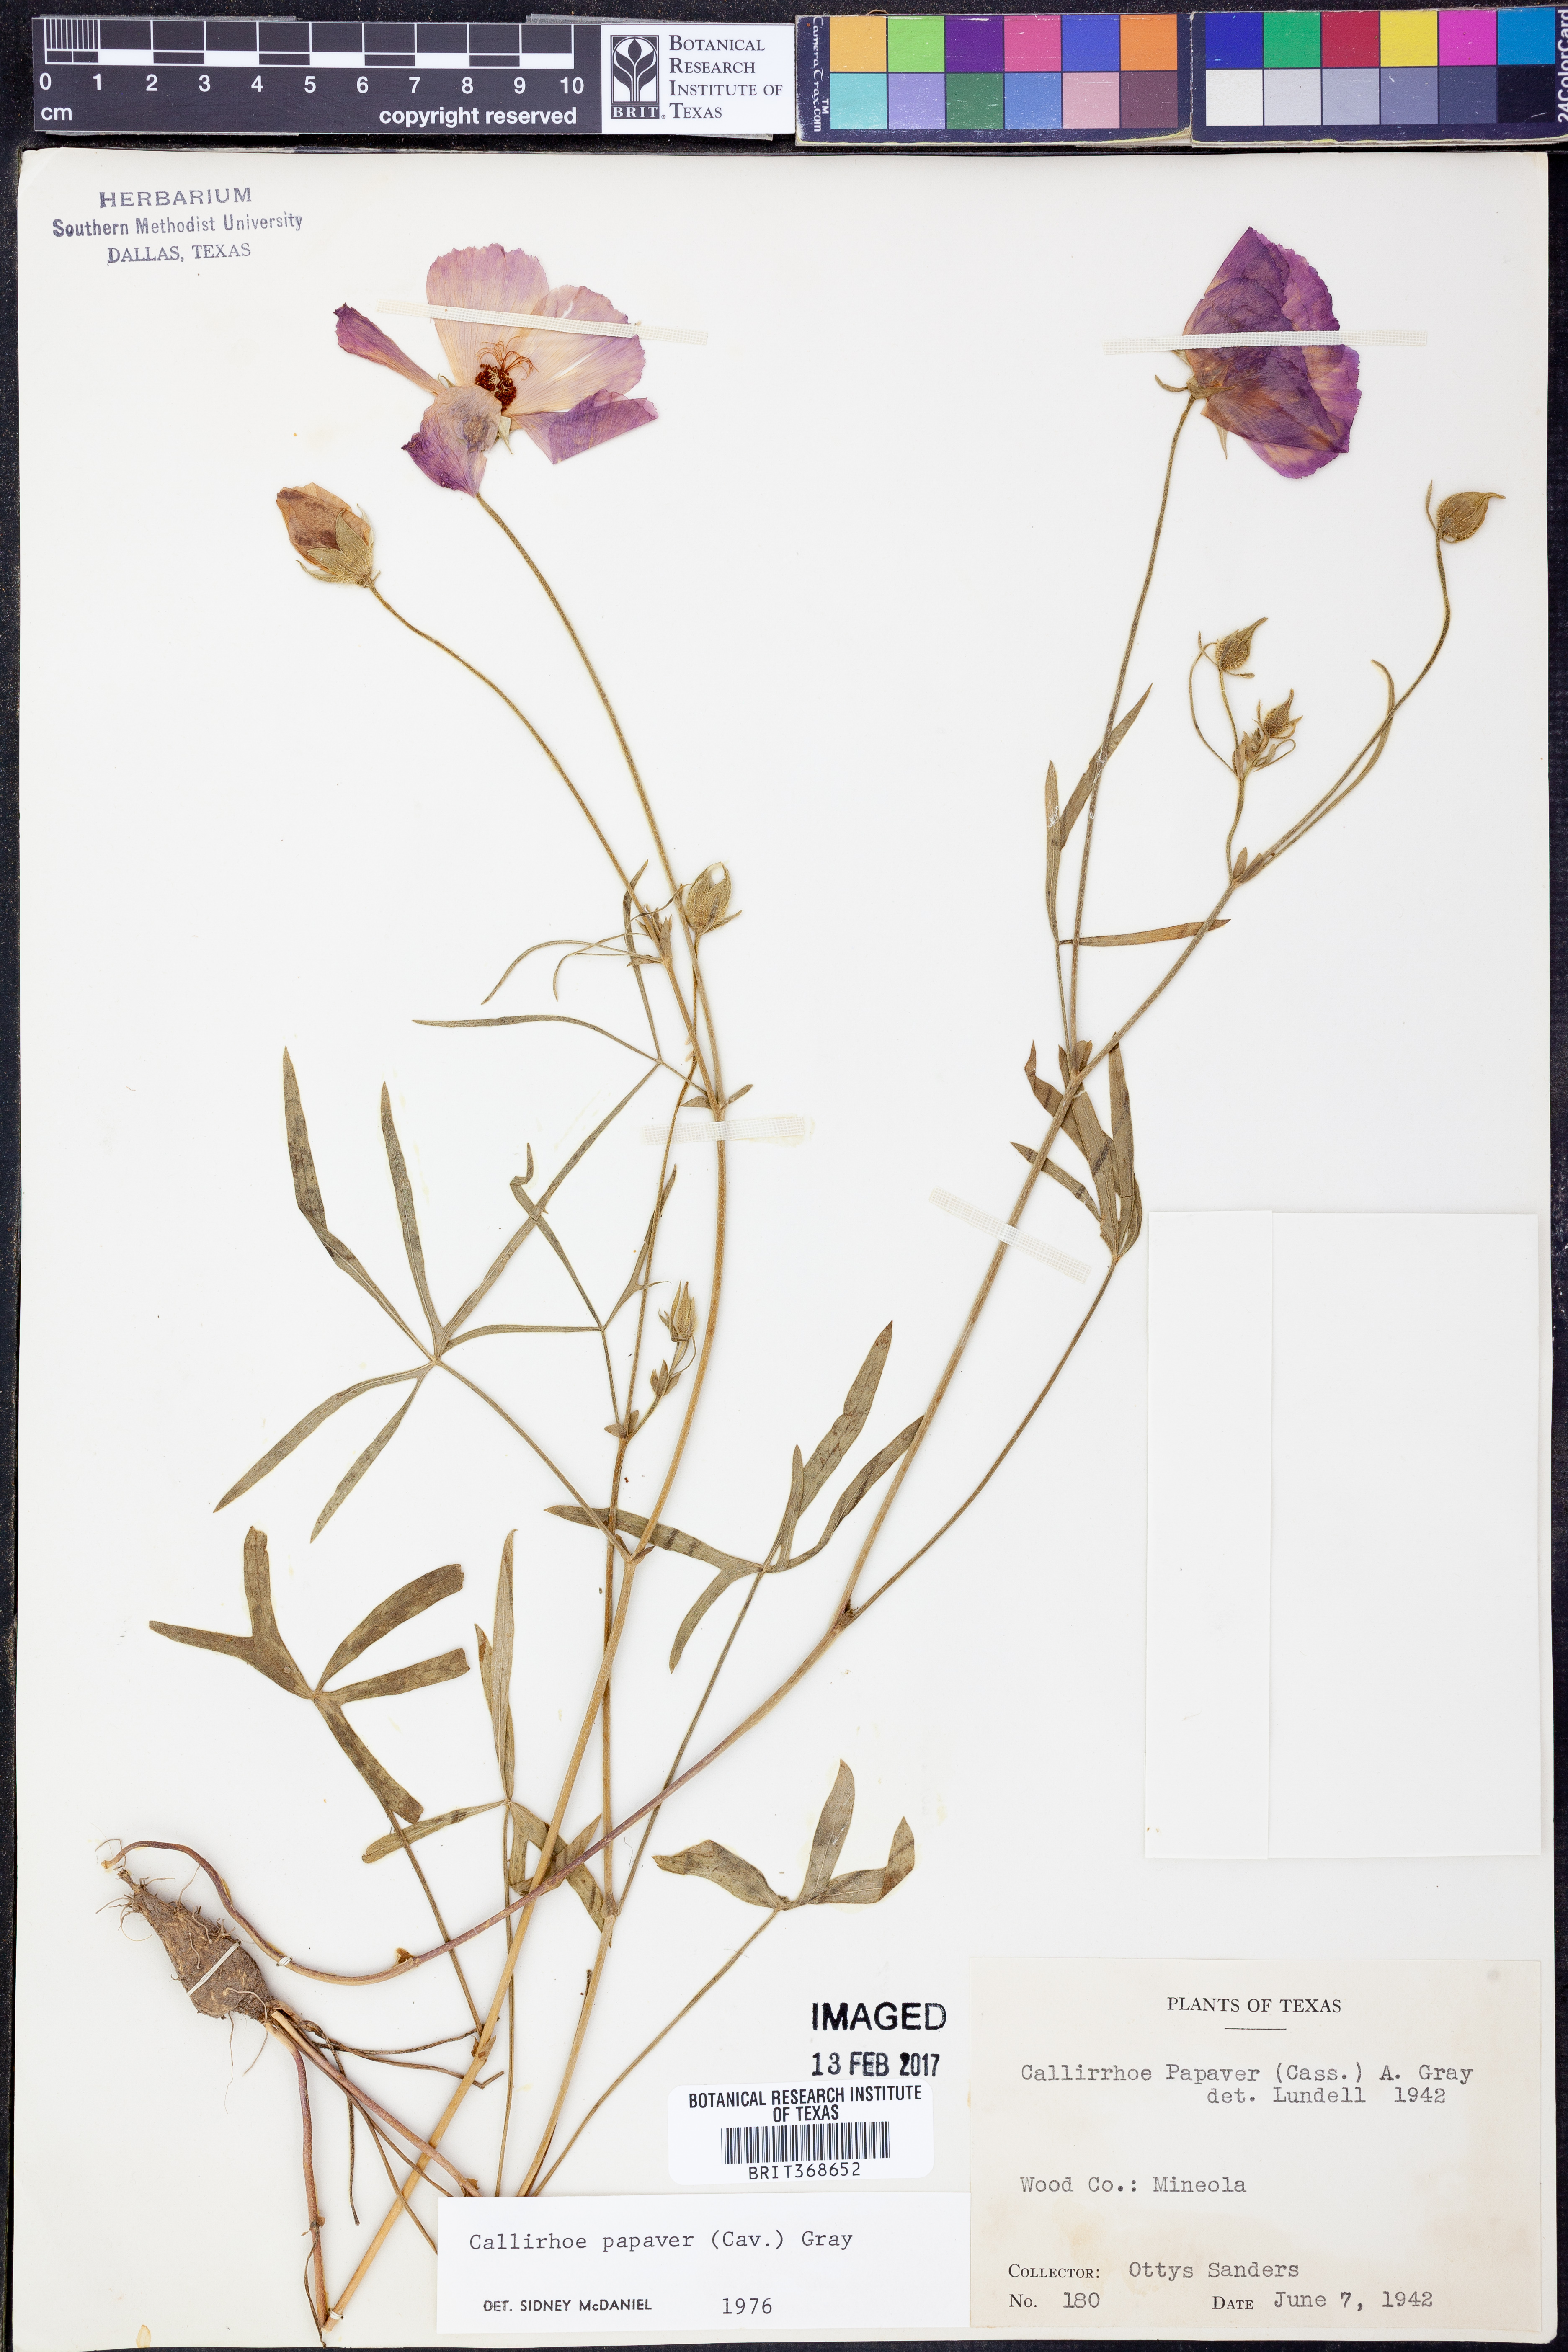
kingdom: Plantae
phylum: Tracheophyta
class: Magnoliopsida
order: Malvales
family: Malvaceae
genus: Callirhoe
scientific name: Callirhoe papaver
